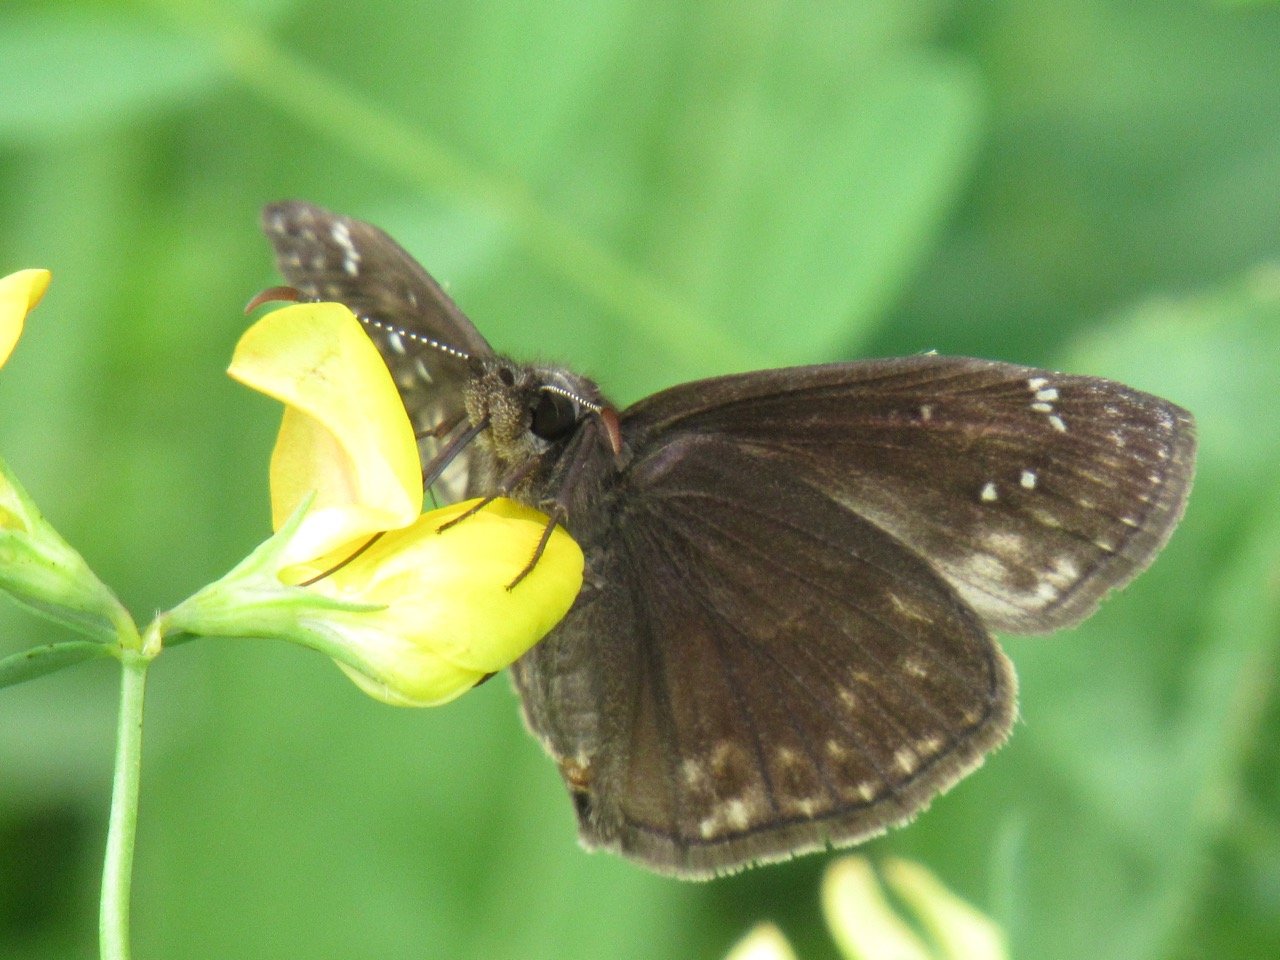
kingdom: Animalia
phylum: Arthropoda
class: Insecta
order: Lepidoptera
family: Hesperiidae
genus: Gesta
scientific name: Gesta
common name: Wild Indigo Duskywing
